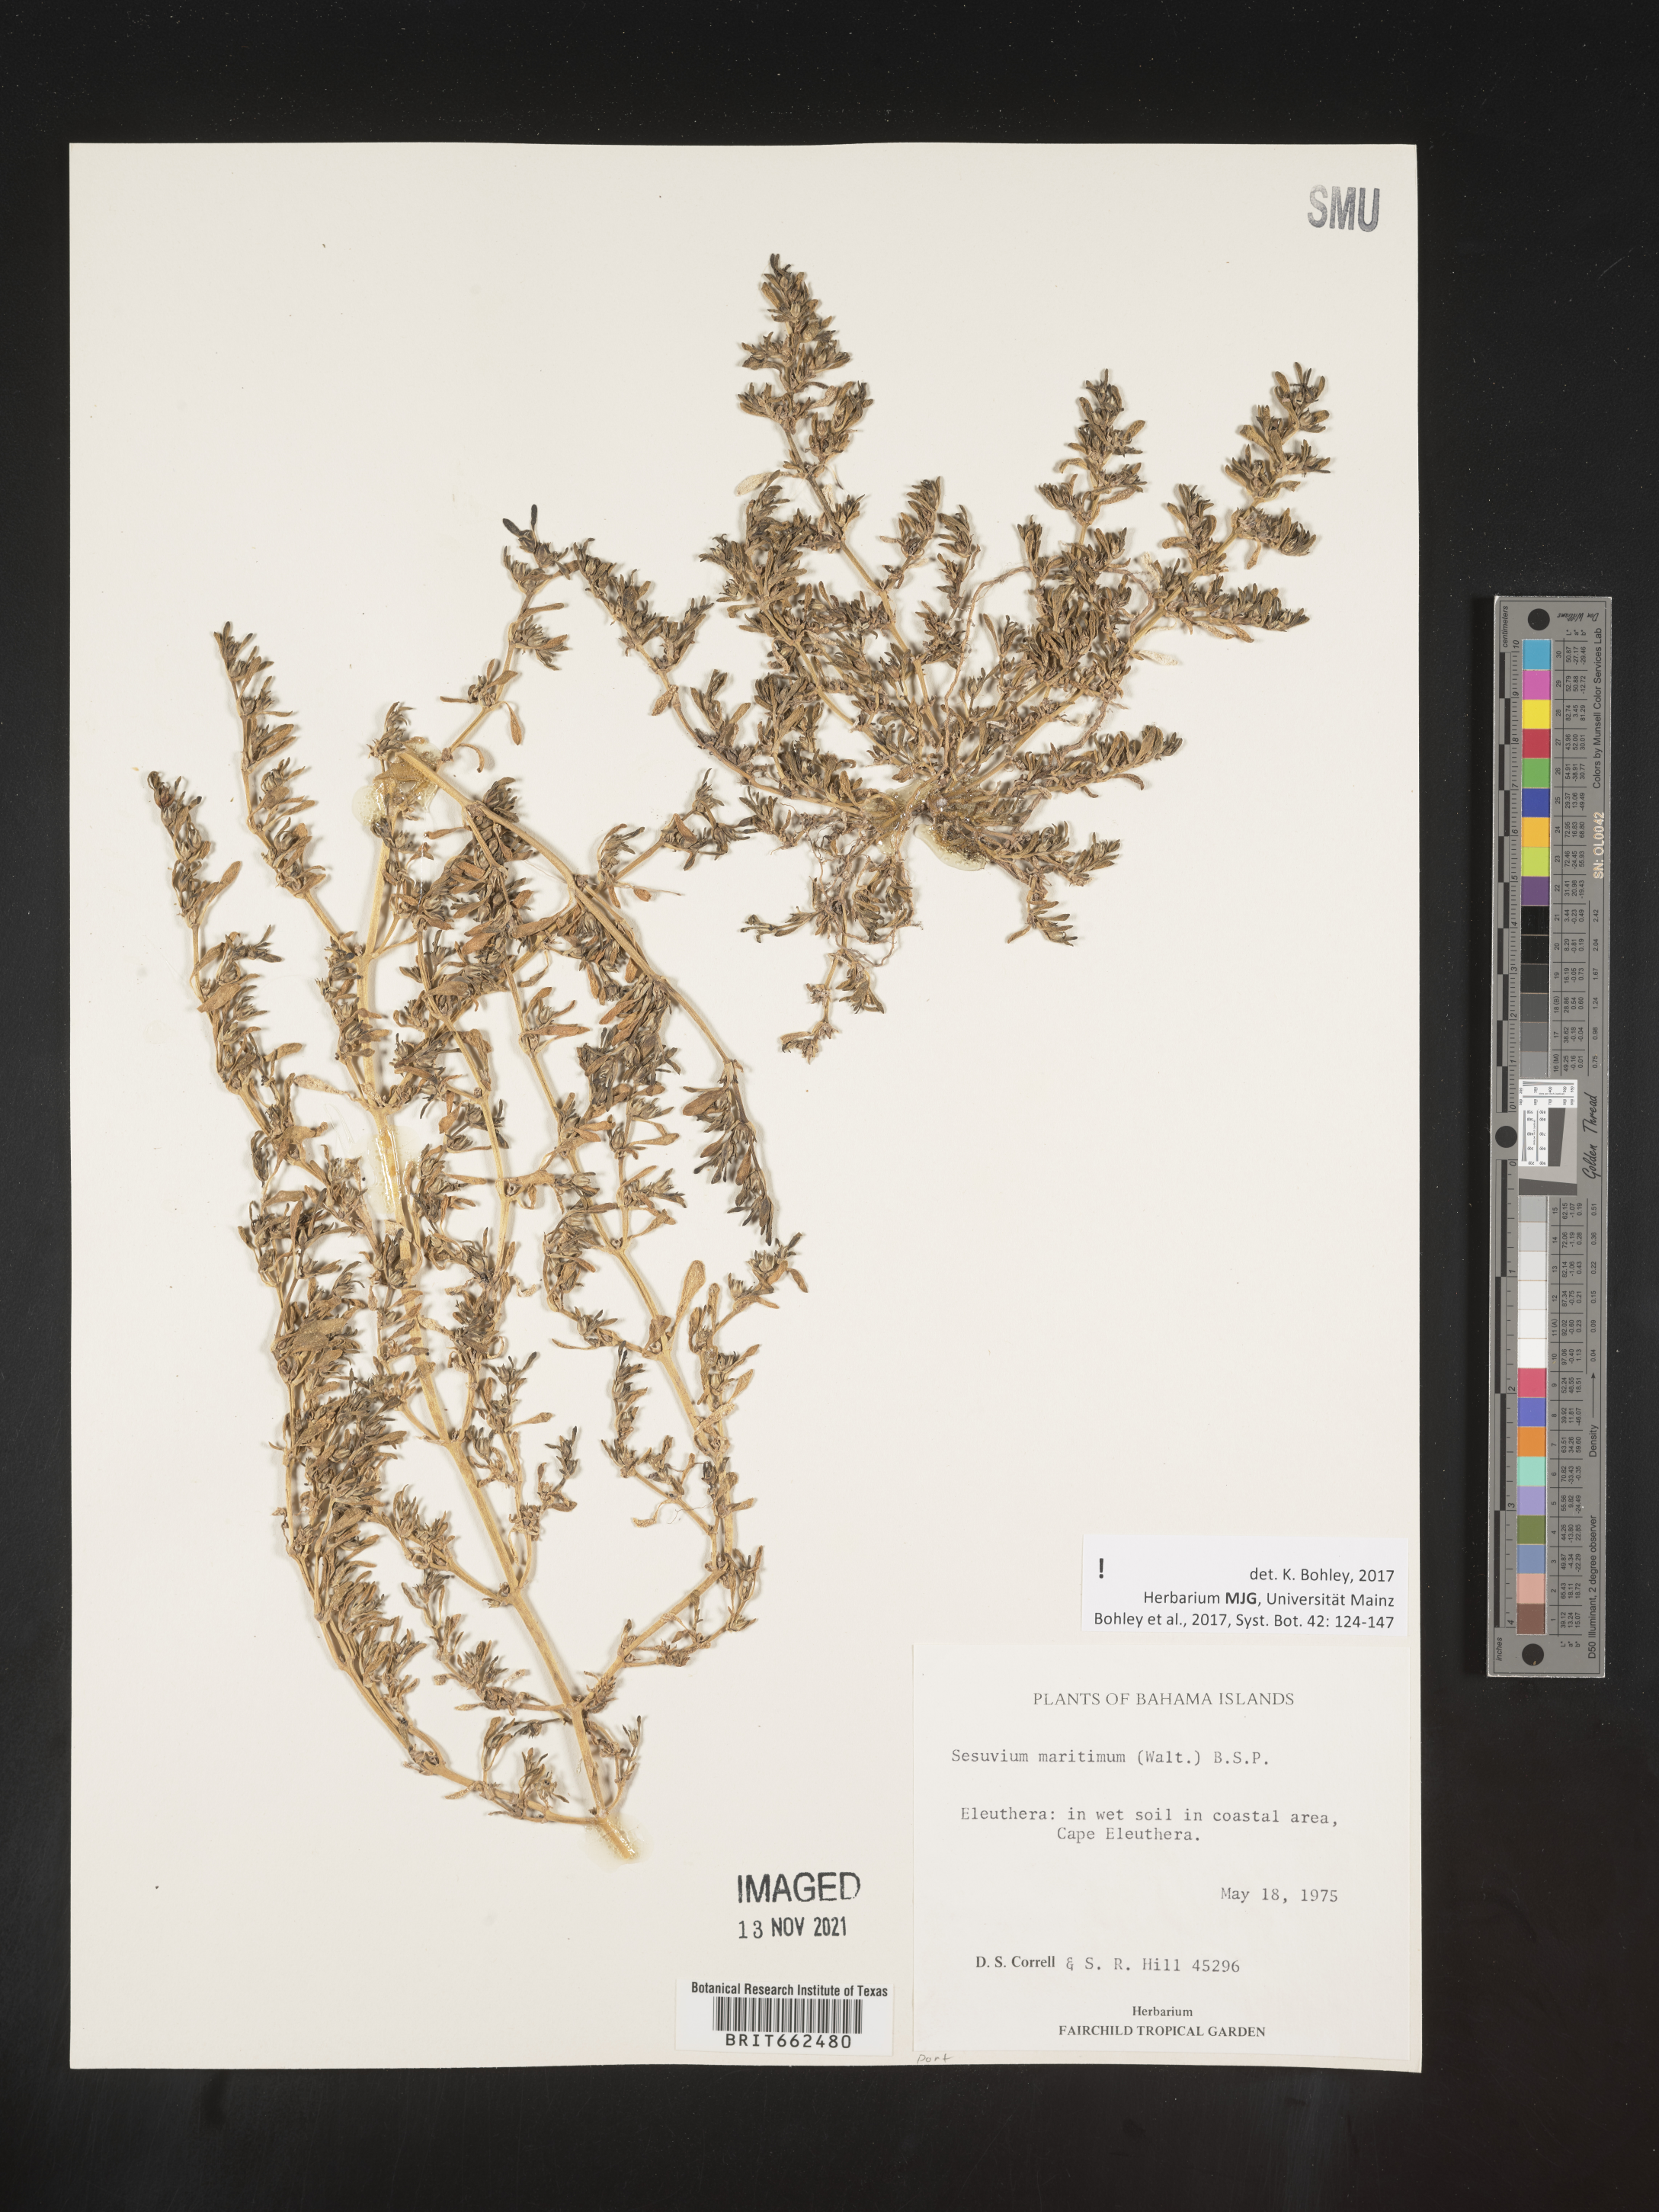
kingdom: Plantae
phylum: Tracheophyta
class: Magnoliopsida
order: Caryophyllales
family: Aizoaceae
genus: Sesuvium
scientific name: Sesuvium
